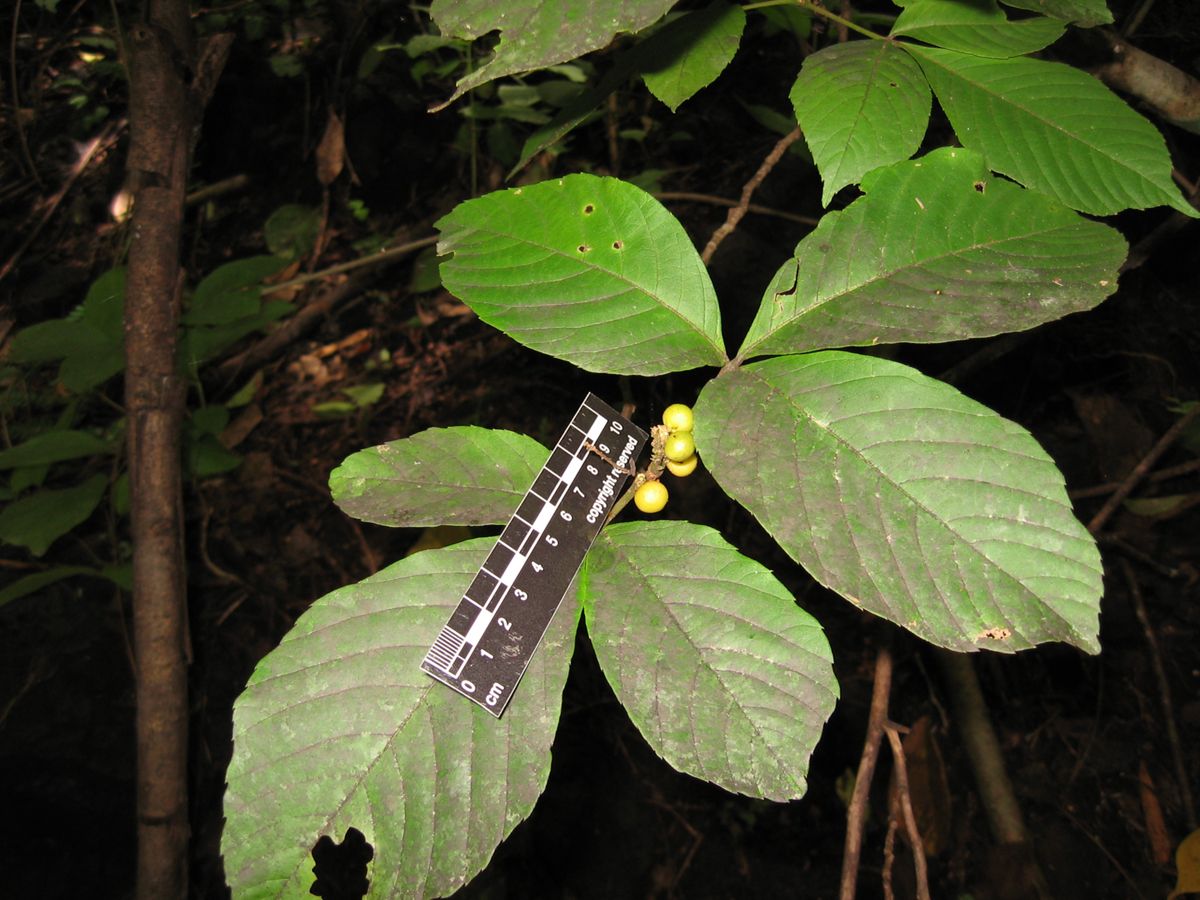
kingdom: Plantae
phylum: Tracheophyta
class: Magnoliopsida
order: Sapindales
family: Sapindaceae
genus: Allophylus
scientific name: Allophylus racemosus
